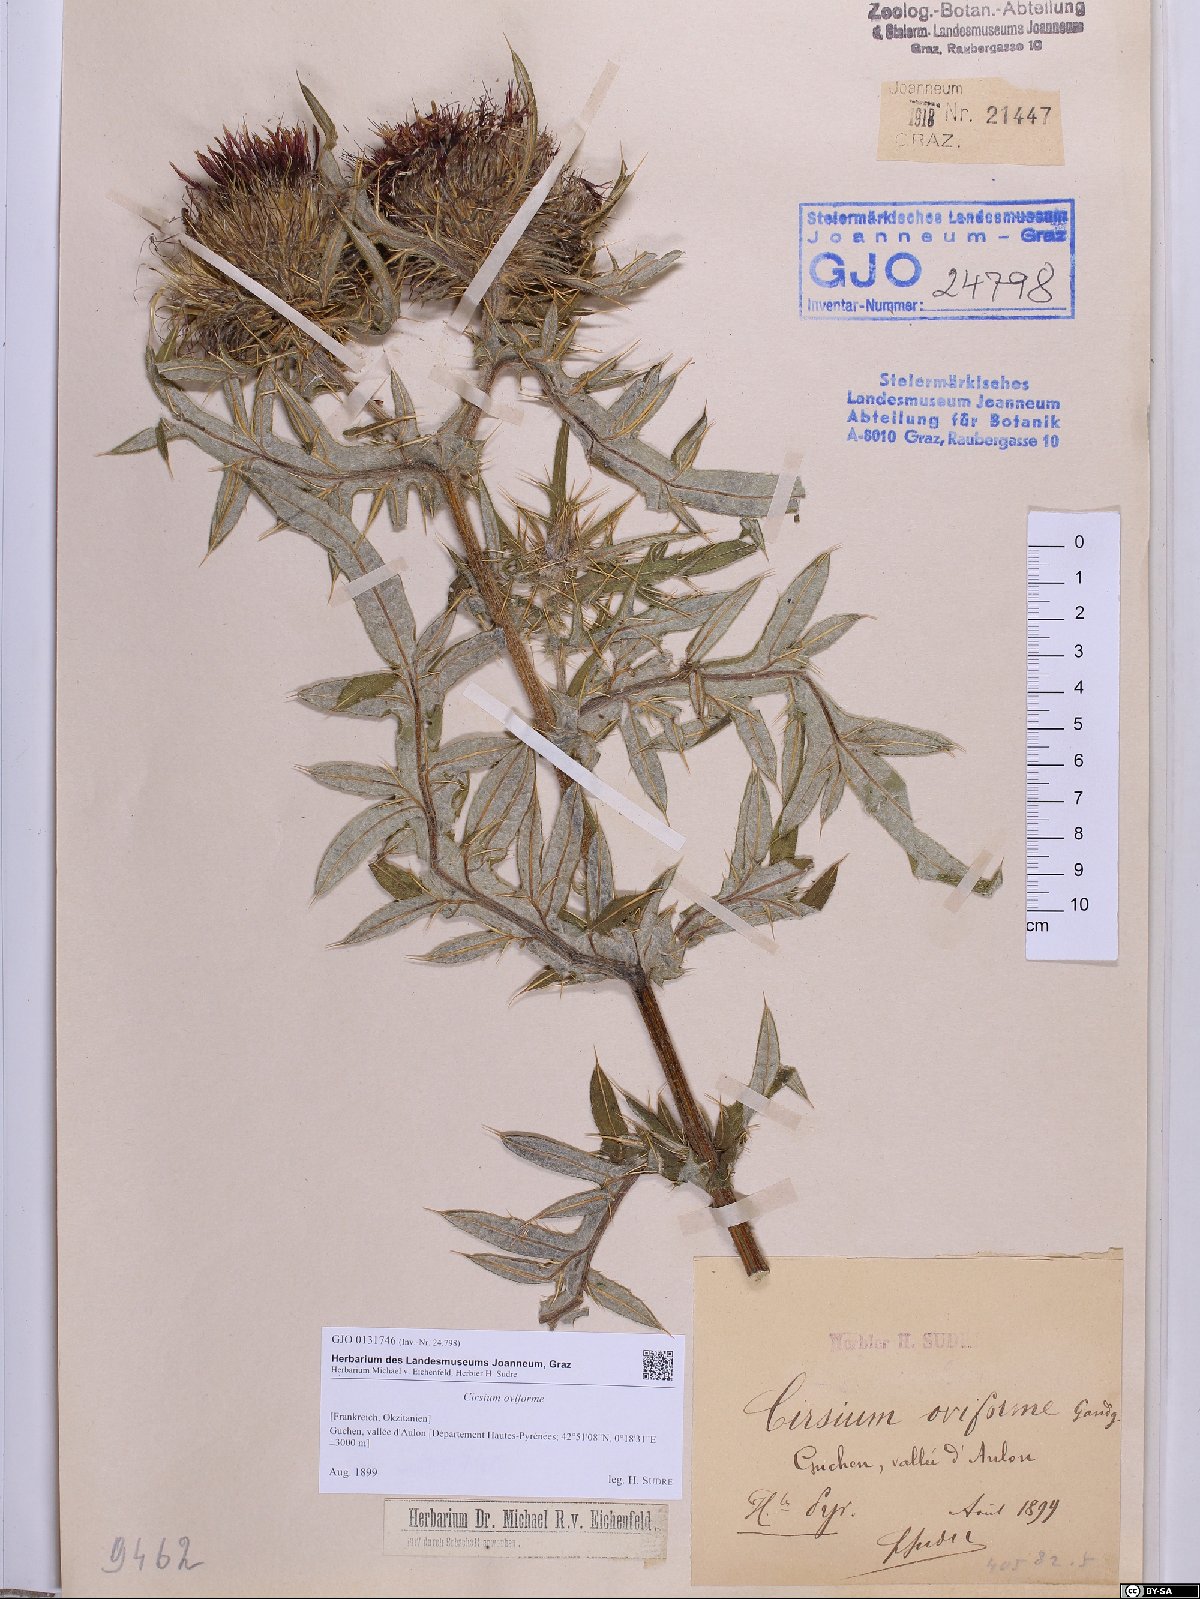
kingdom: Plantae
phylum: Tracheophyta
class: Magnoliopsida
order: Asterales
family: Asteraceae
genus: Lophiolepis
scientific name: Lophiolepis eriophora
